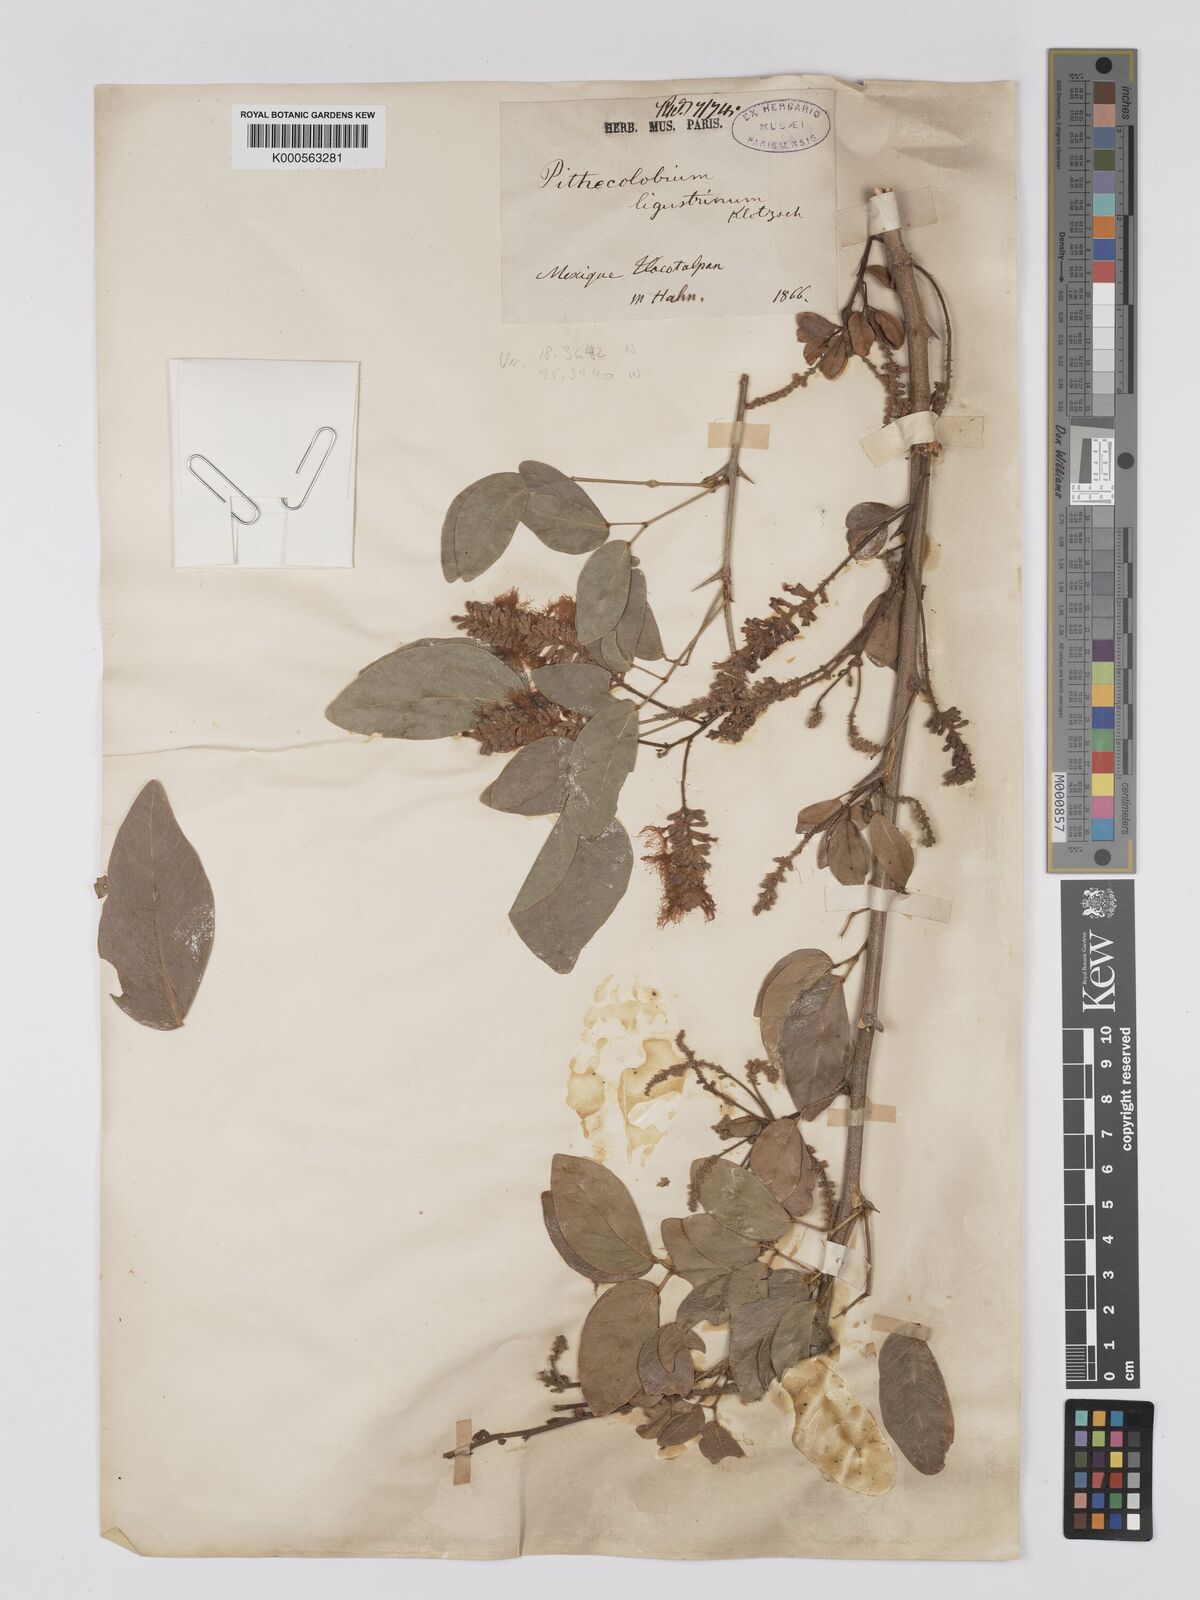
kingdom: Plantae
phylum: Tracheophyta
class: Magnoliopsida
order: Fabales
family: Fabaceae
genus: Pithecellobium
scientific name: Pithecellobium lanceolatum
